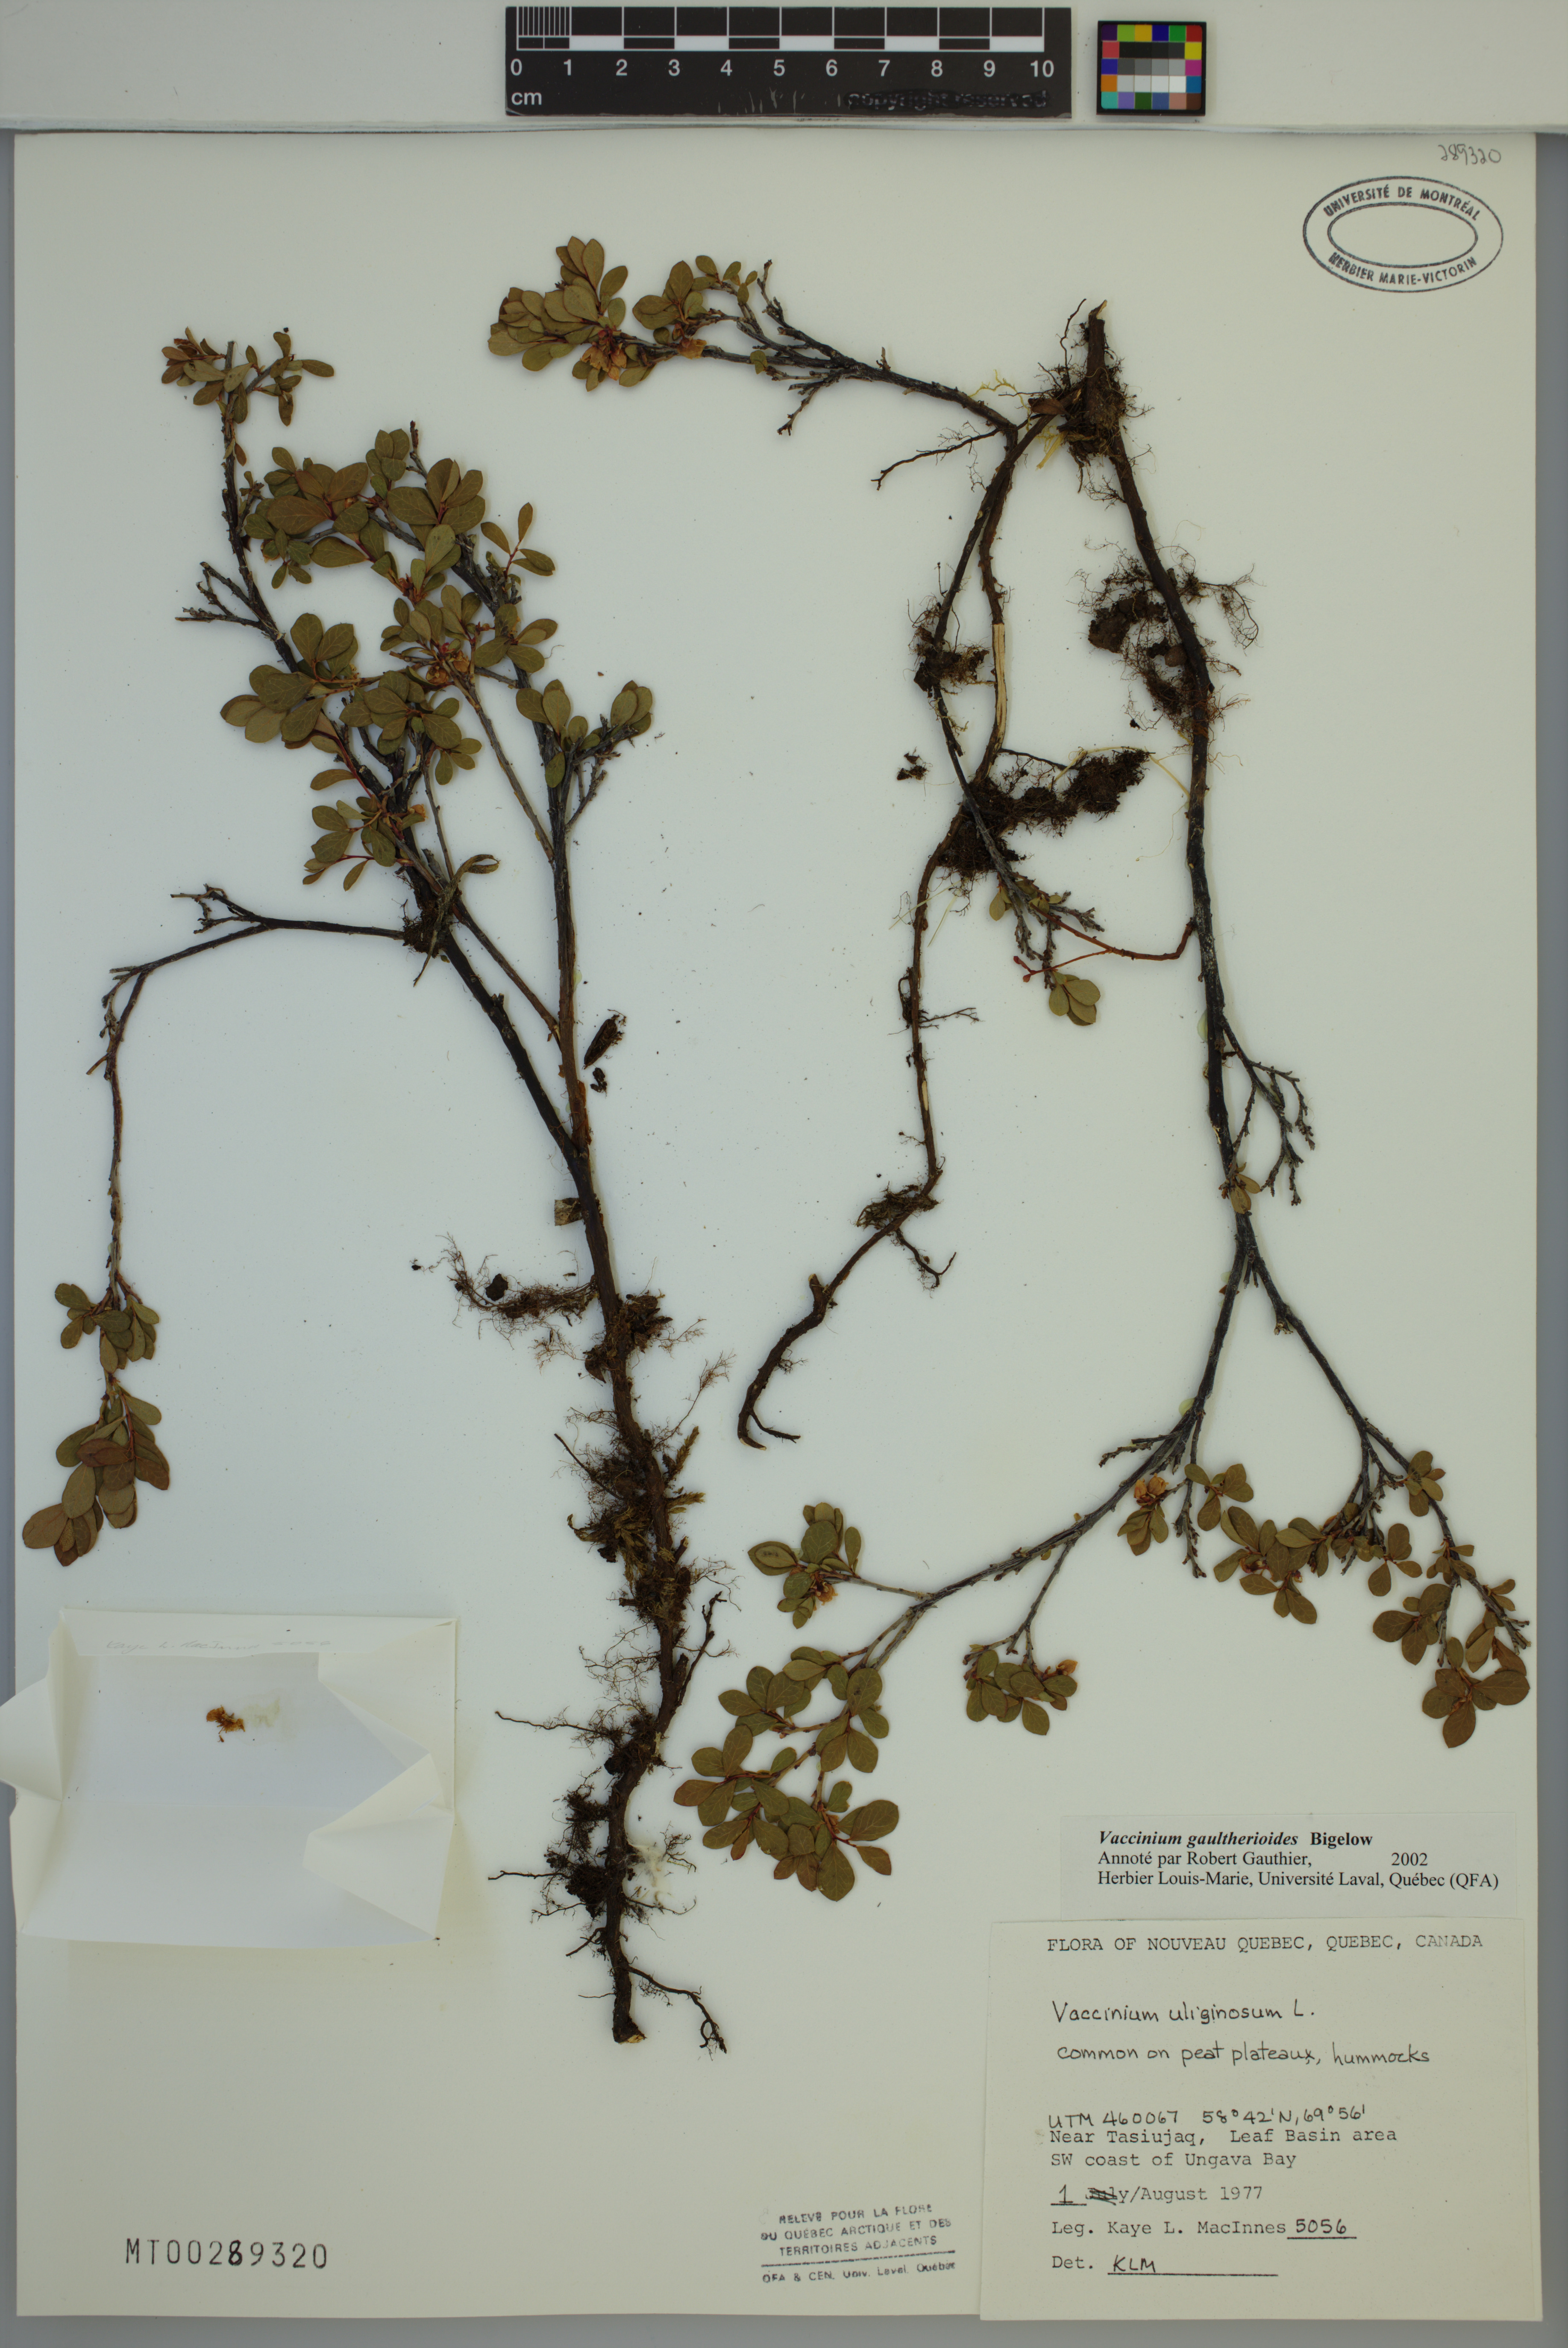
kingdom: Plantae
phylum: Tracheophyta
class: Magnoliopsida
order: Ericales
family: Ericaceae
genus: Vaccinium
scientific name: Vaccinium gaultherioides
